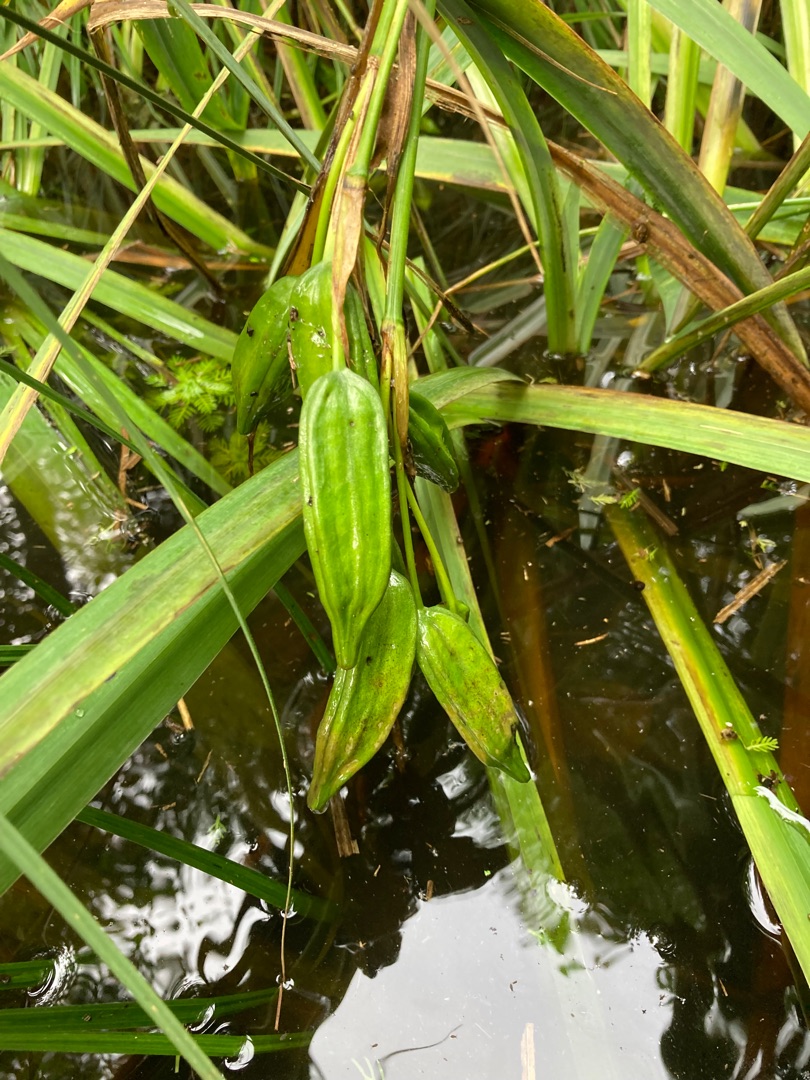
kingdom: Plantae
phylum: Tracheophyta
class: Liliopsida
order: Asparagales
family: Iridaceae
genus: Iris
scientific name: Iris pseudacorus
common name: Gul iris
